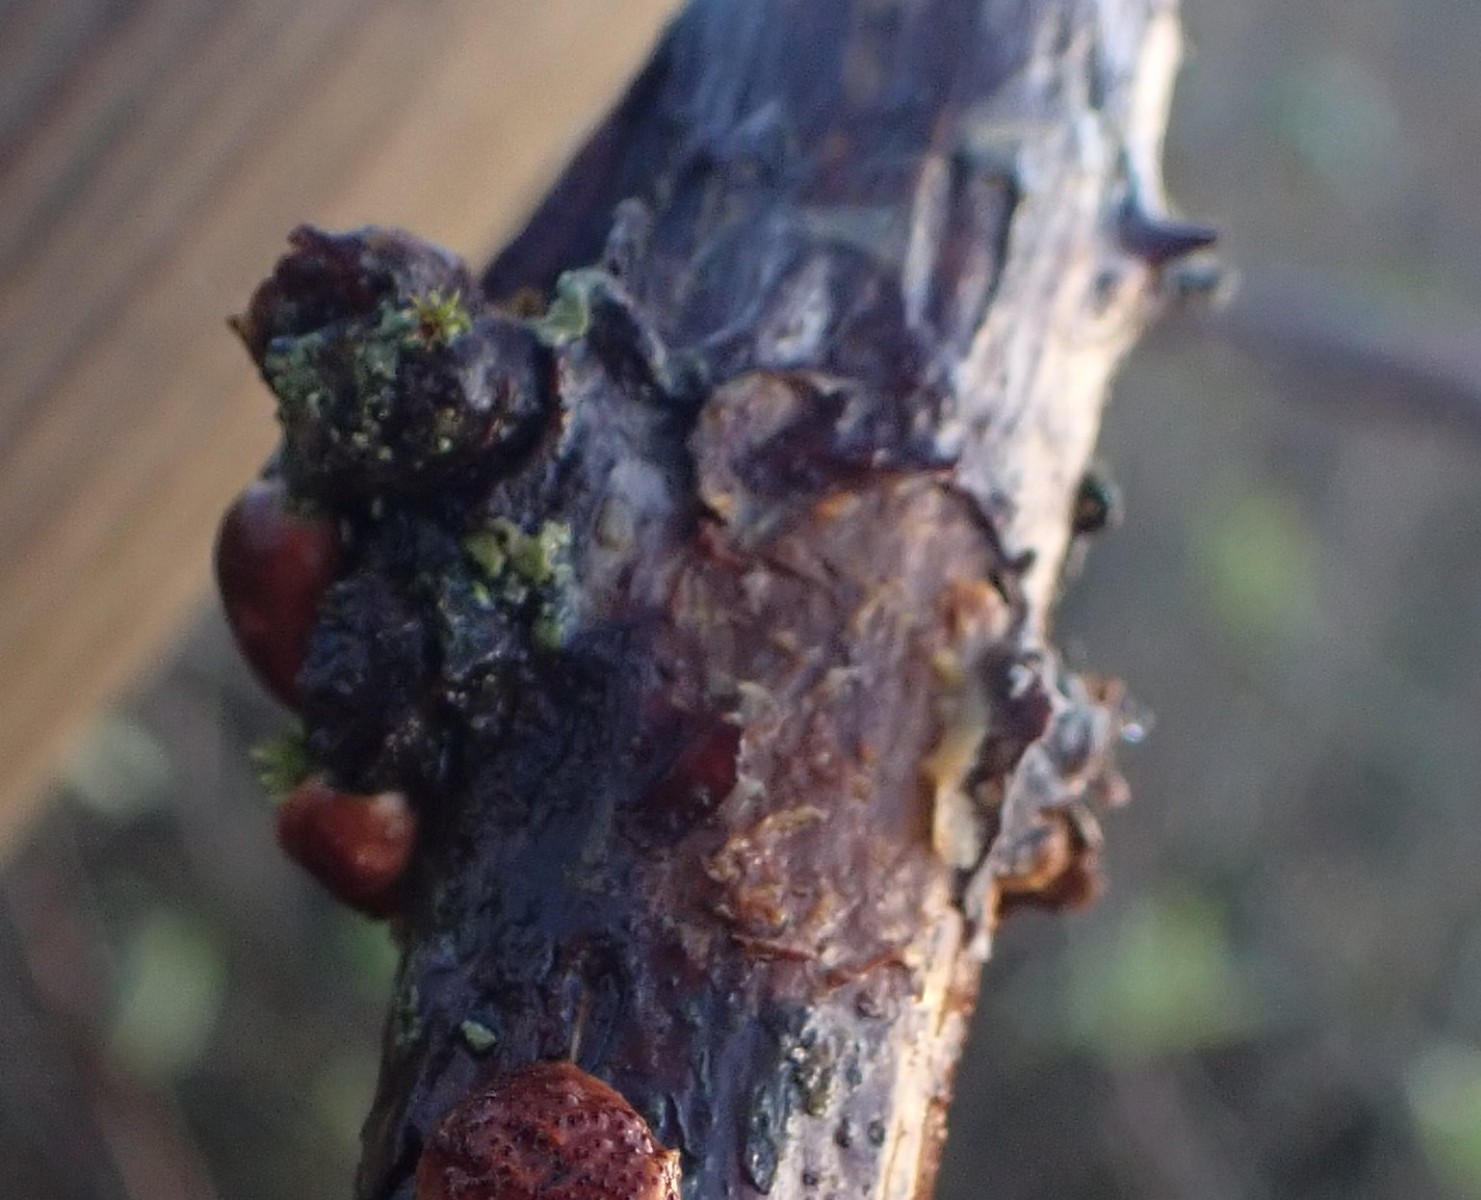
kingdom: Fungi
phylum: Basidiomycota
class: Agaricomycetes
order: Hymenochaetales
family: Hymenochaetaceae
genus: Hydnoporia
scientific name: Hydnoporia tabacina
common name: tobaksbrun ruslædersvamp
